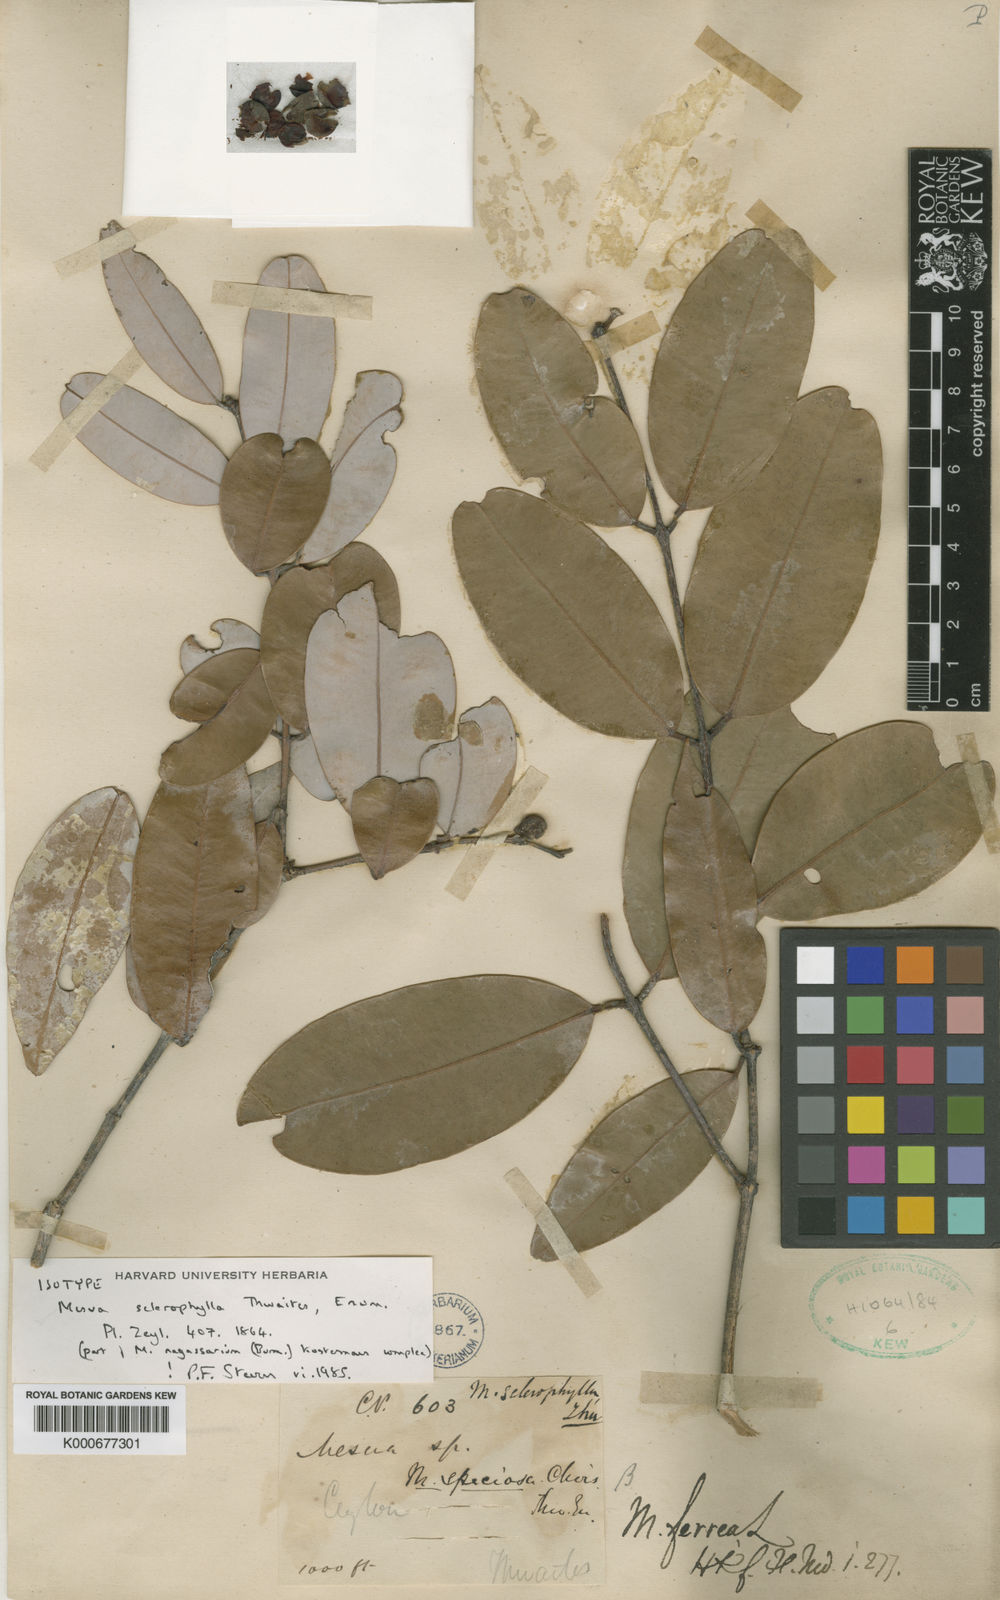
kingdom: Plantae
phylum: Tracheophyta
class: Magnoliopsida
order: Malpighiales
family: Calophyllaceae
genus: Mesua
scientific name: Mesua ferrea
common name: Mesua
